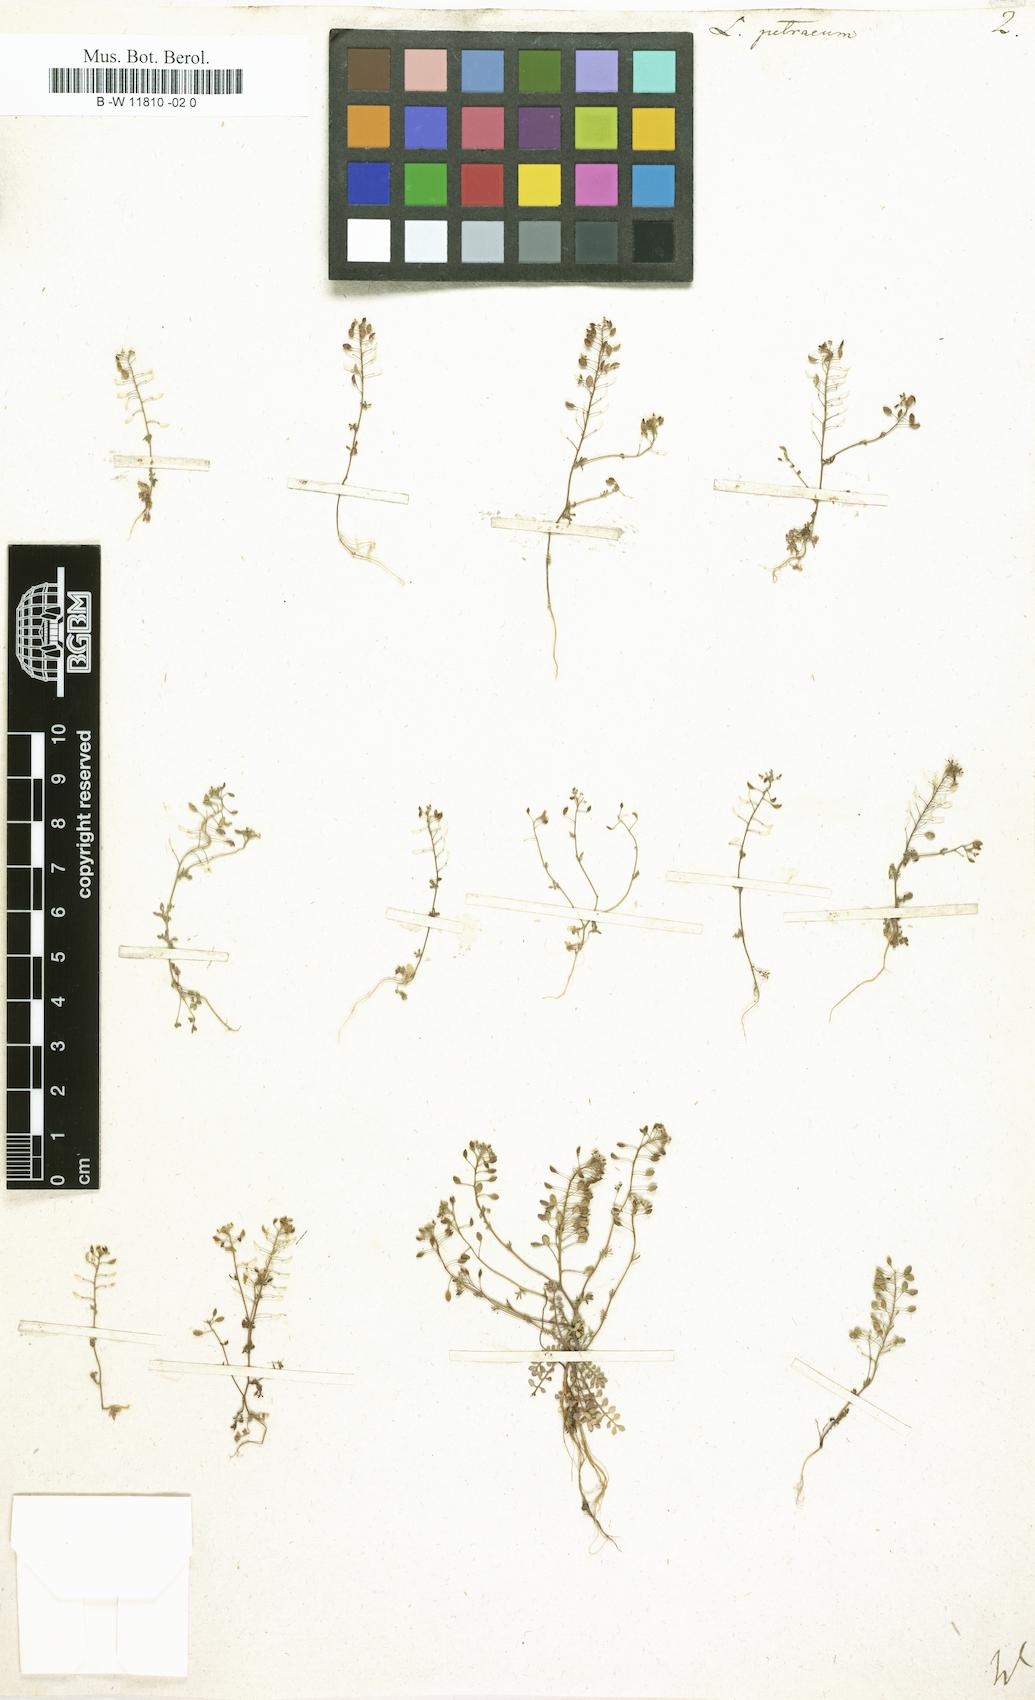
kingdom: Plantae
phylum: Tracheophyta
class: Magnoliopsida
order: Brassicales
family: Brassicaceae
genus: Hornungia
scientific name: Hornungia
